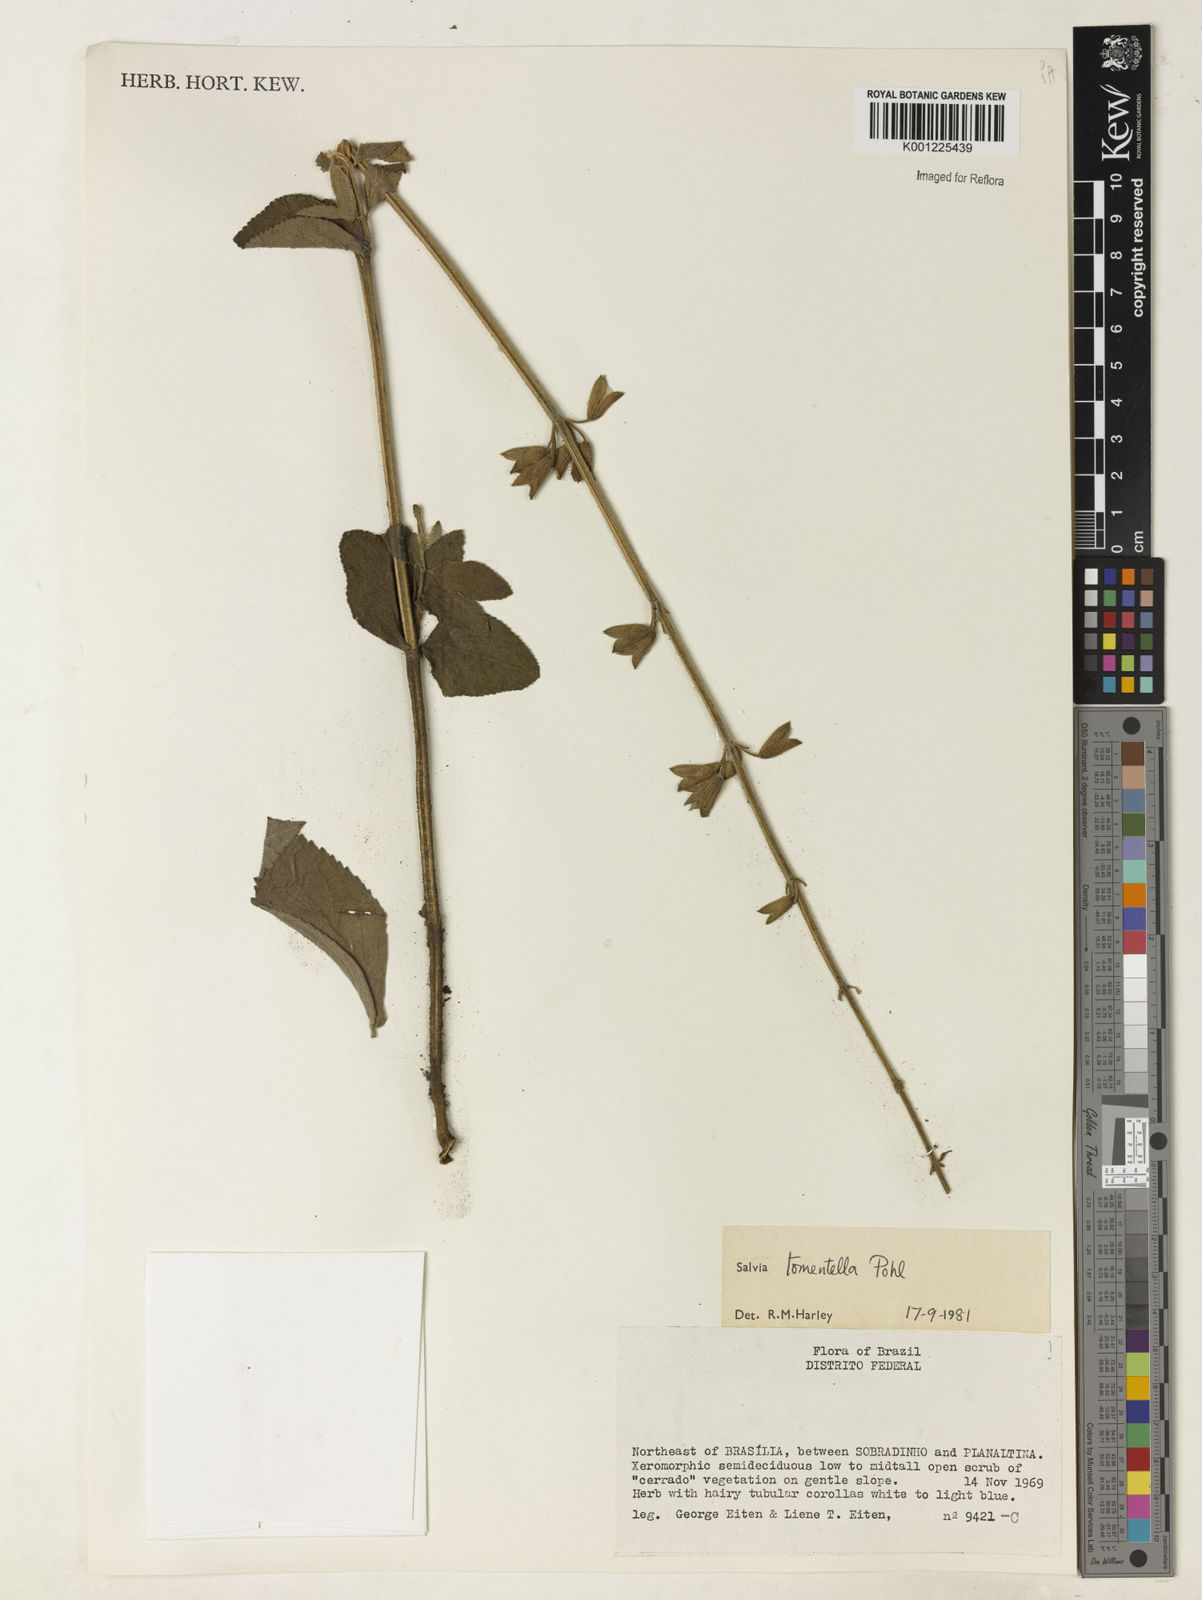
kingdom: Plantae
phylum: Tracheophyta
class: Magnoliopsida
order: Lamiales
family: Lamiaceae
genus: Salvia
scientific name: Salvia tomentella
